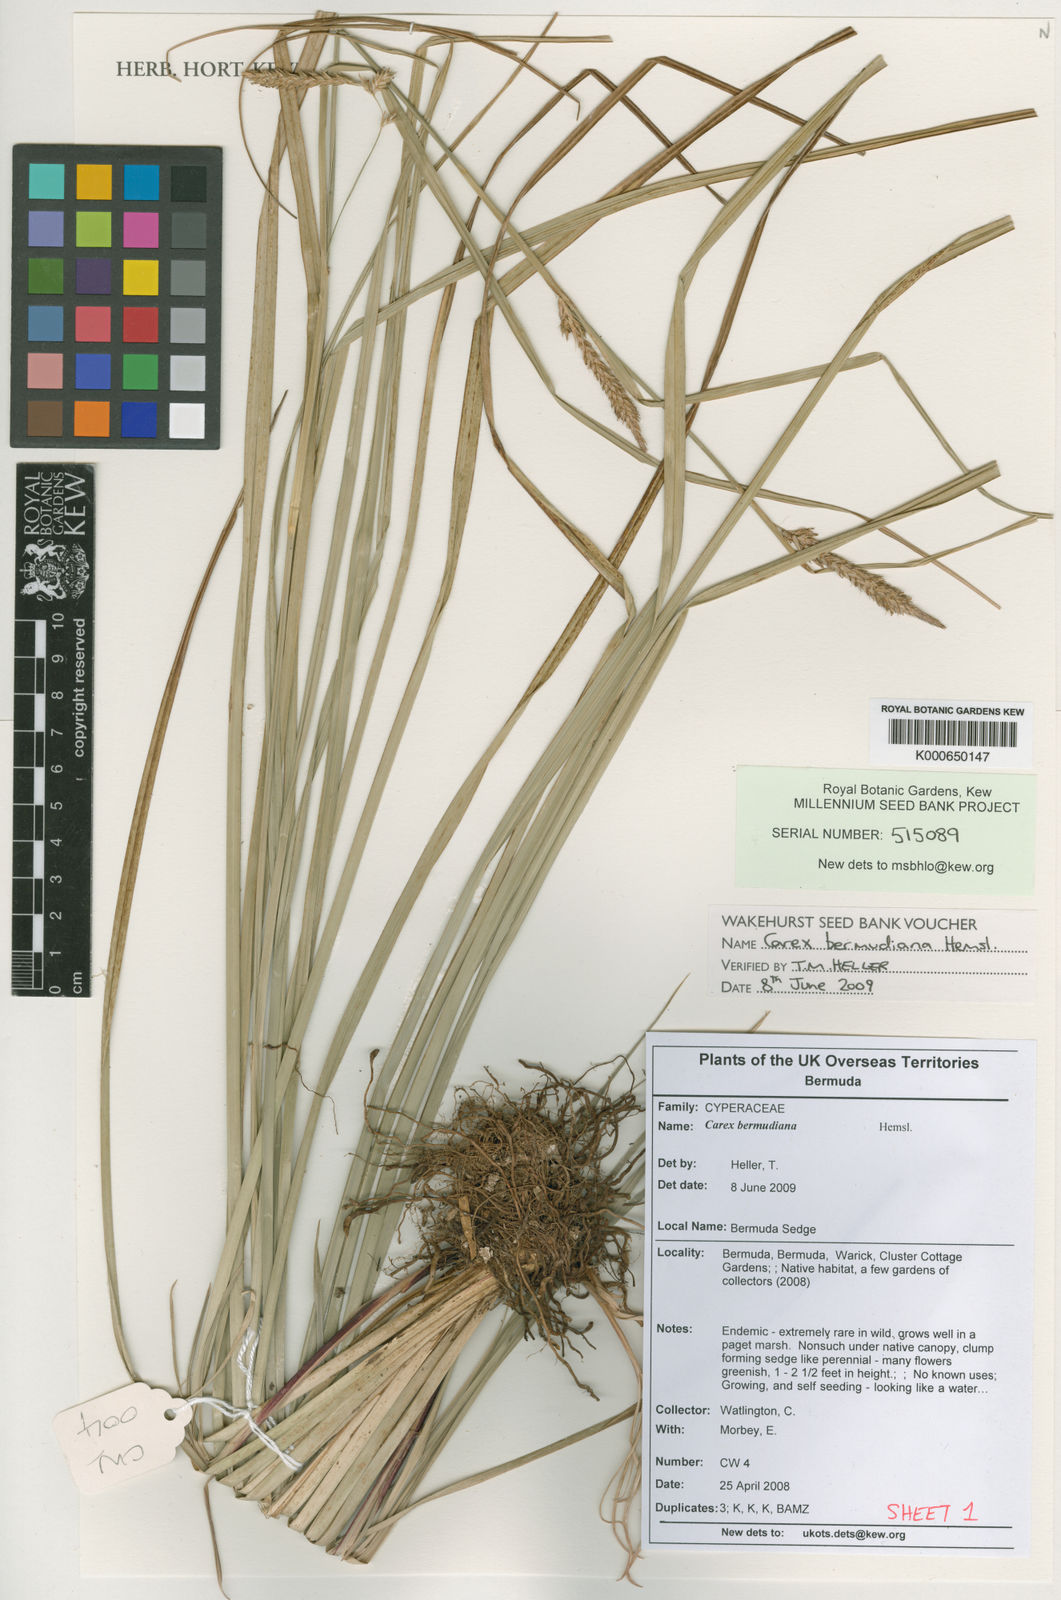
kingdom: Plantae
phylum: Tracheophyta
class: Liliopsida
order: Poales
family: Cyperaceae
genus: Carex
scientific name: Carex bermudiana
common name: Bermuda sedge
